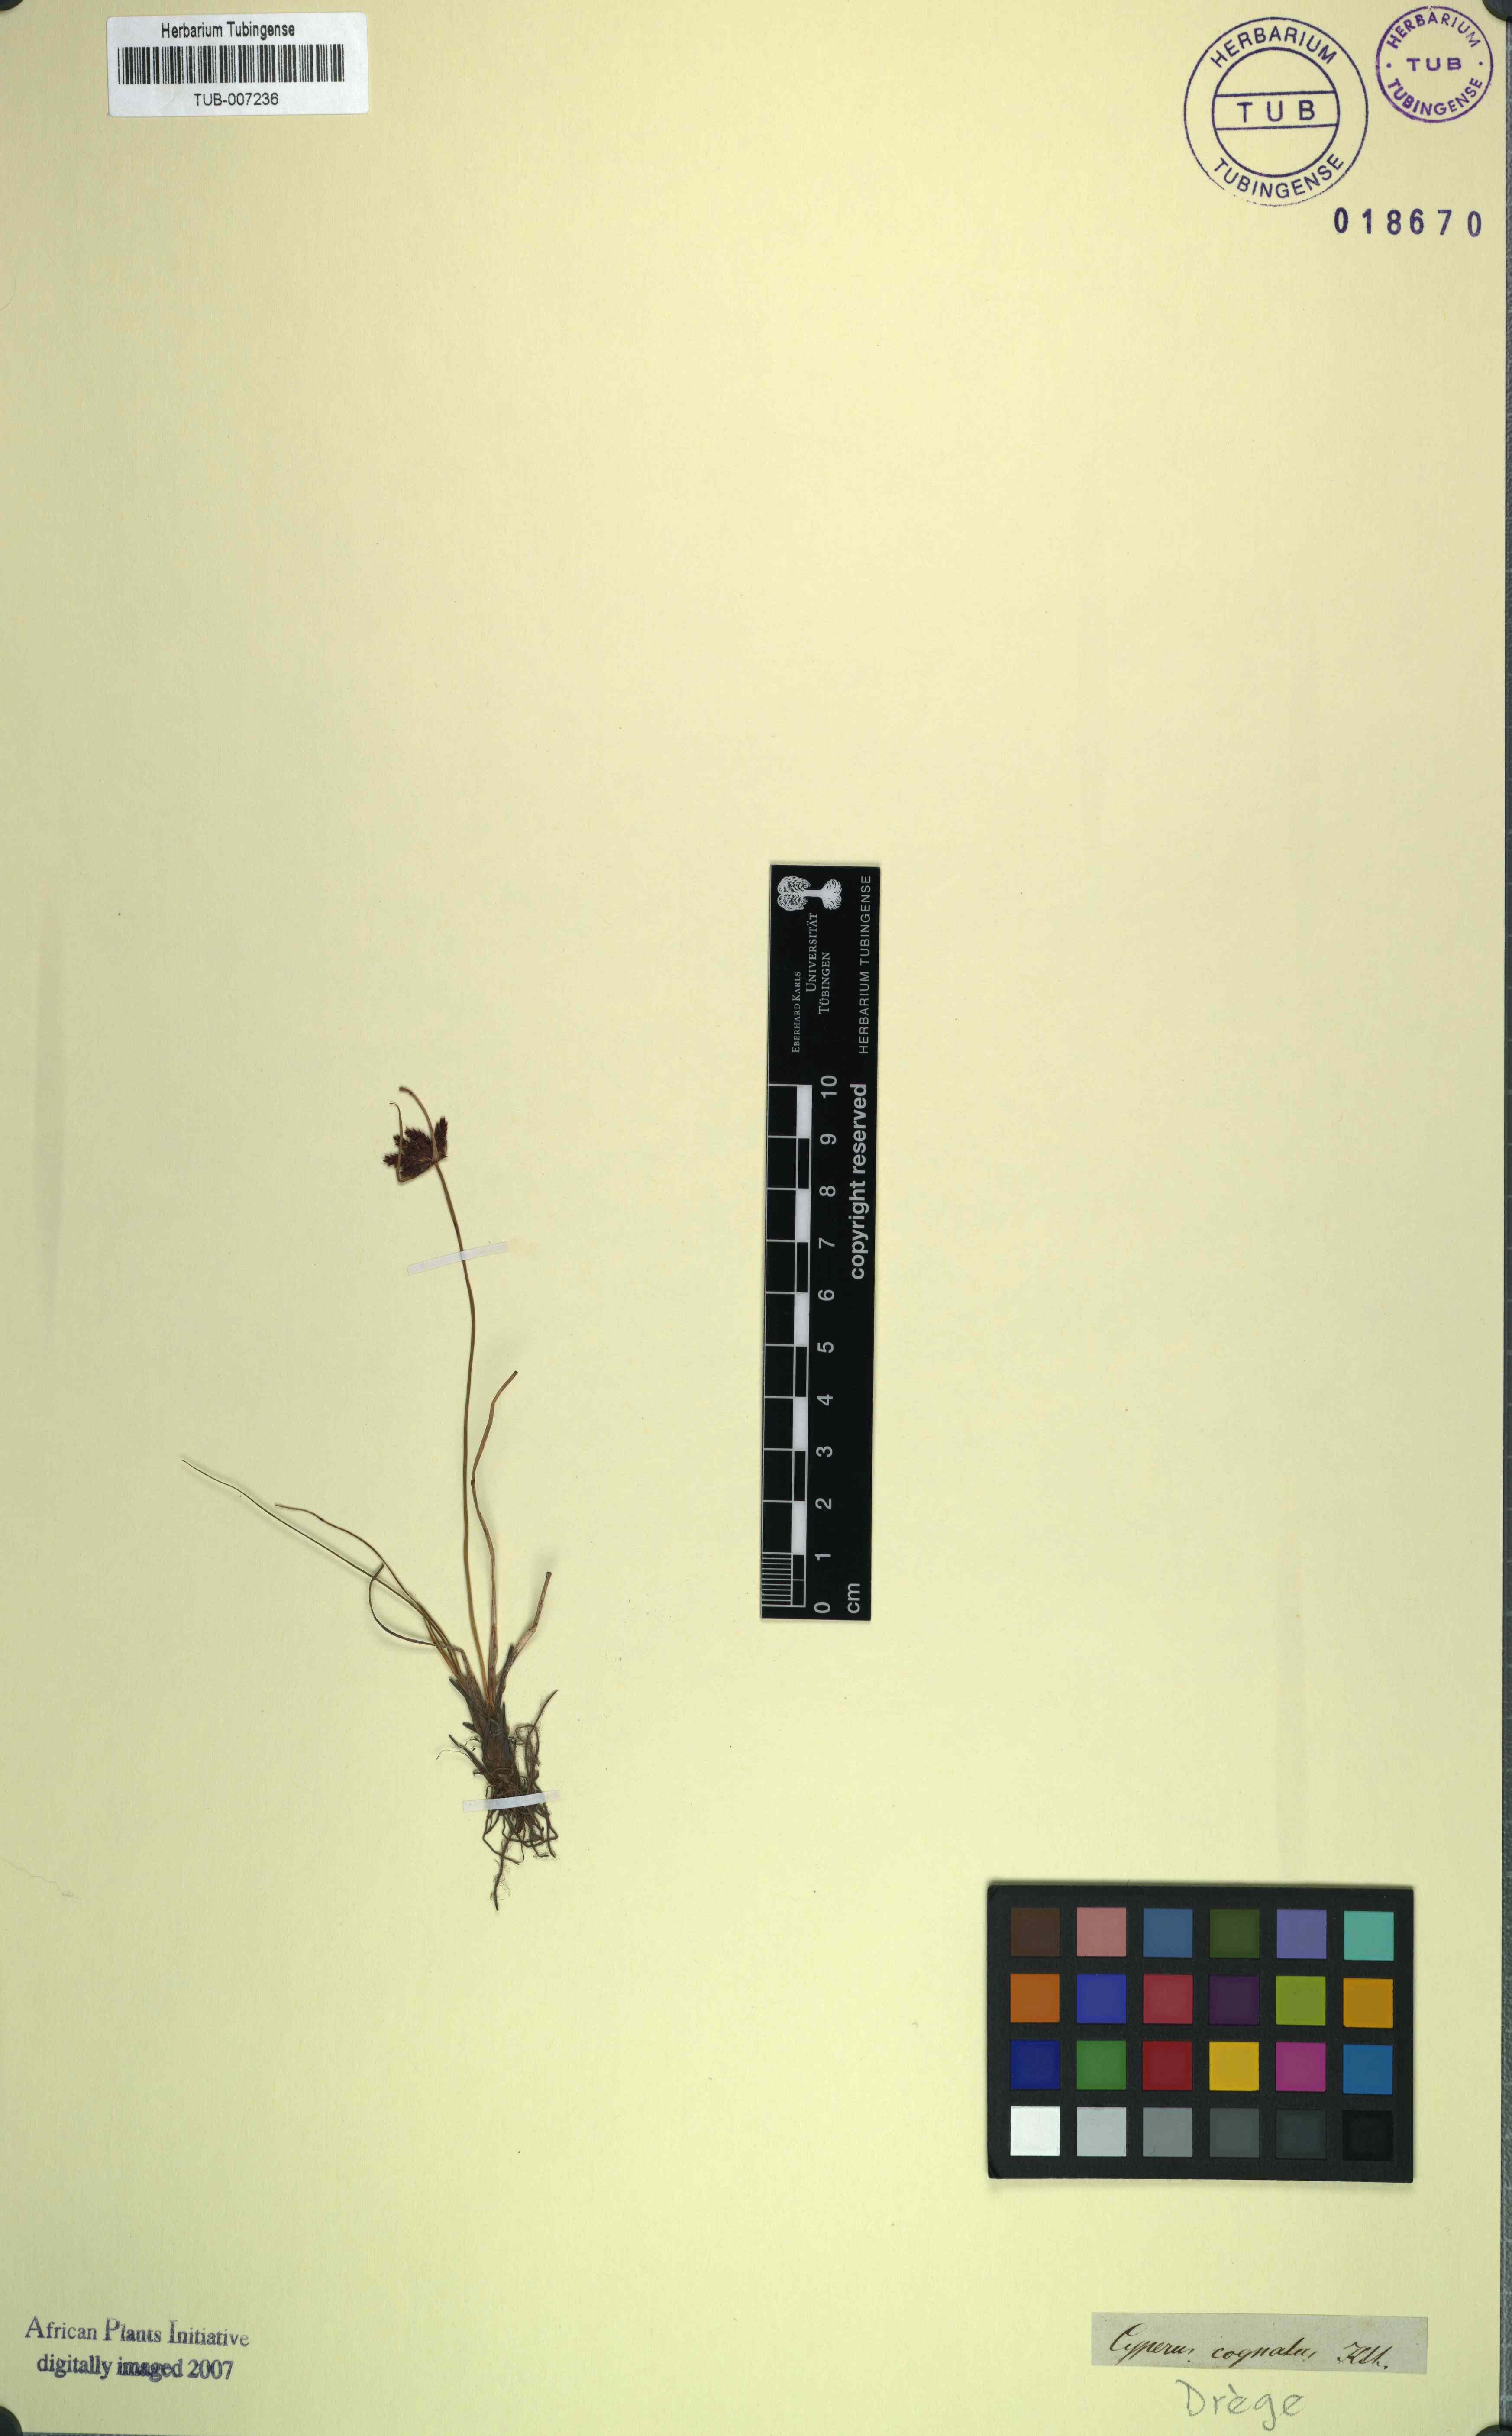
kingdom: Plantae
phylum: Tracheophyta
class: Liliopsida
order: Poales
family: Cyperaceae
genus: Cyperus
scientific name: Cyperus rupestris
